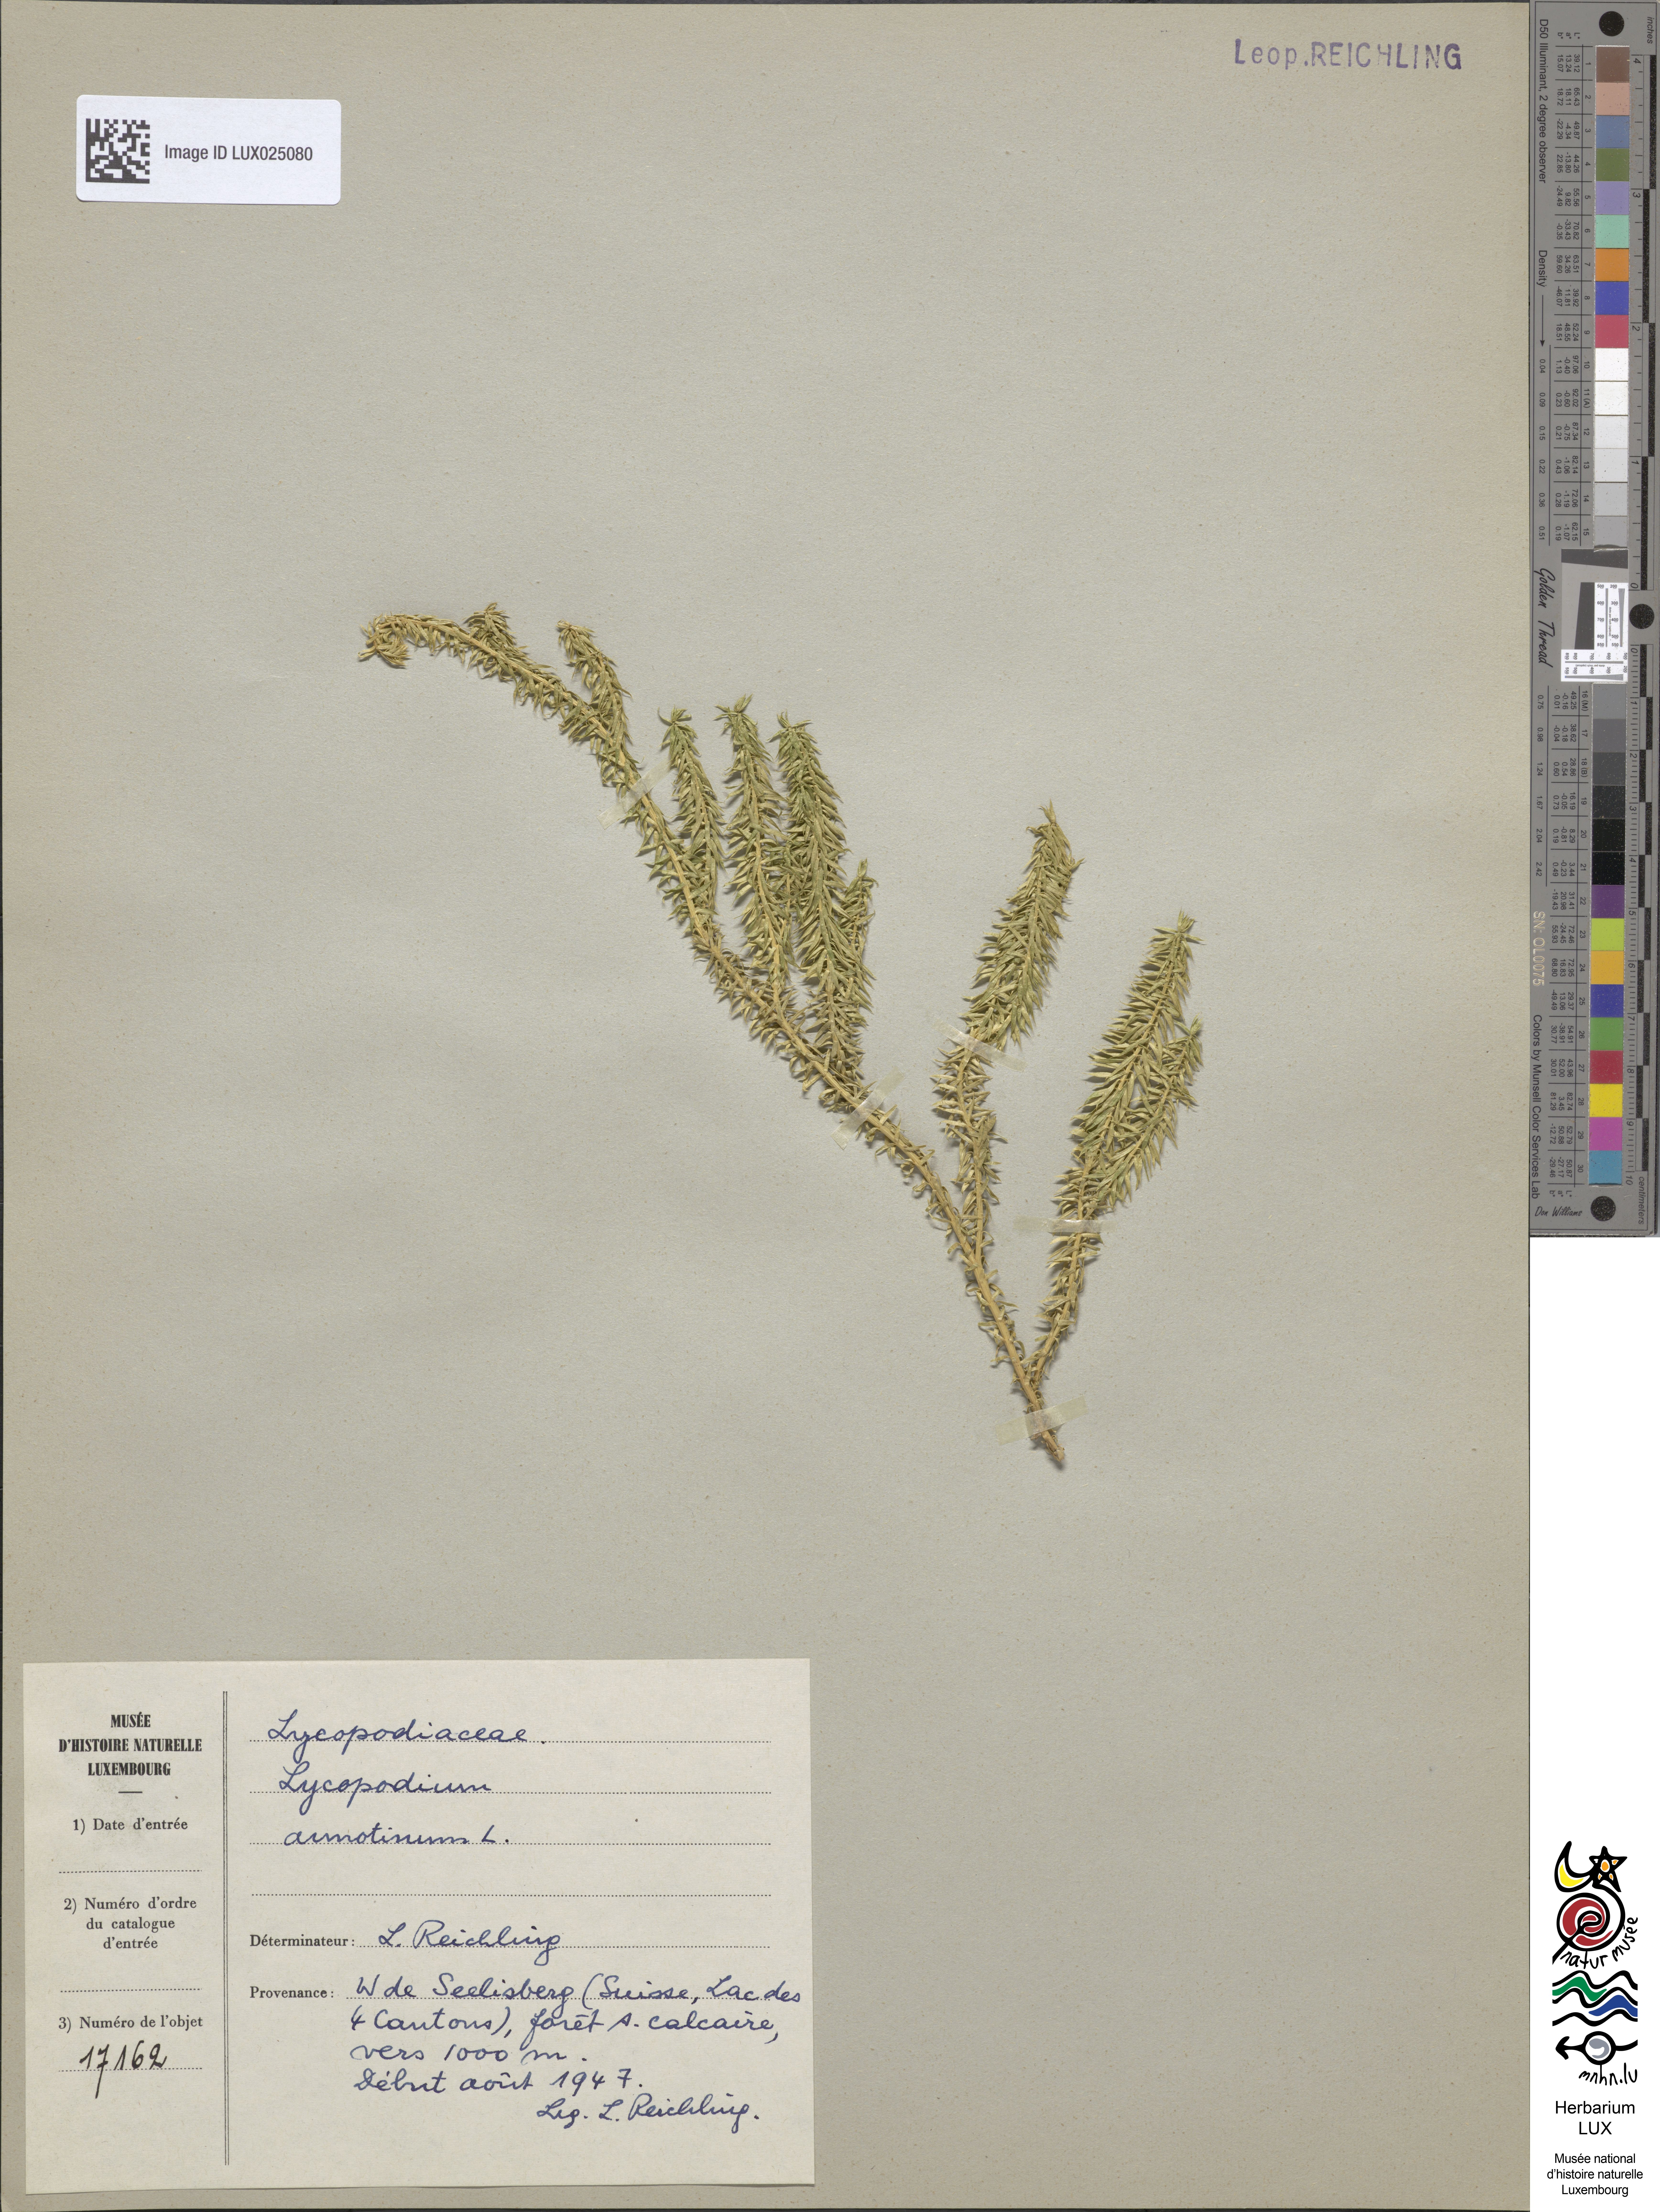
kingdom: Plantae
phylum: Tracheophyta
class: Lycopodiopsida
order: Lycopodiales
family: Lycopodiaceae
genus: Spinulum
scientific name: Spinulum annotinum
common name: Interrupted club-moss
